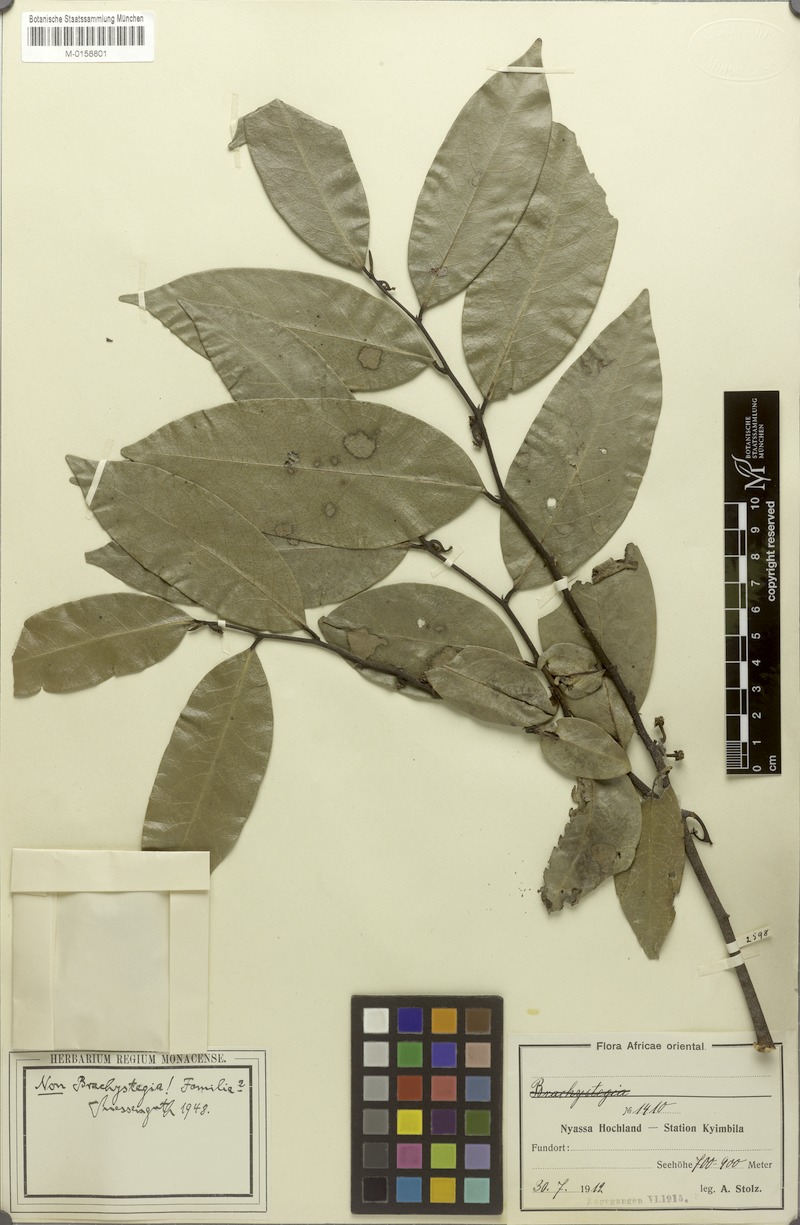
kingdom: Plantae
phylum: Tracheophyta
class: Magnoliopsida
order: Magnoliales
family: Annonaceae
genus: Artabotrys
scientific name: Artabotrys monteiroae
